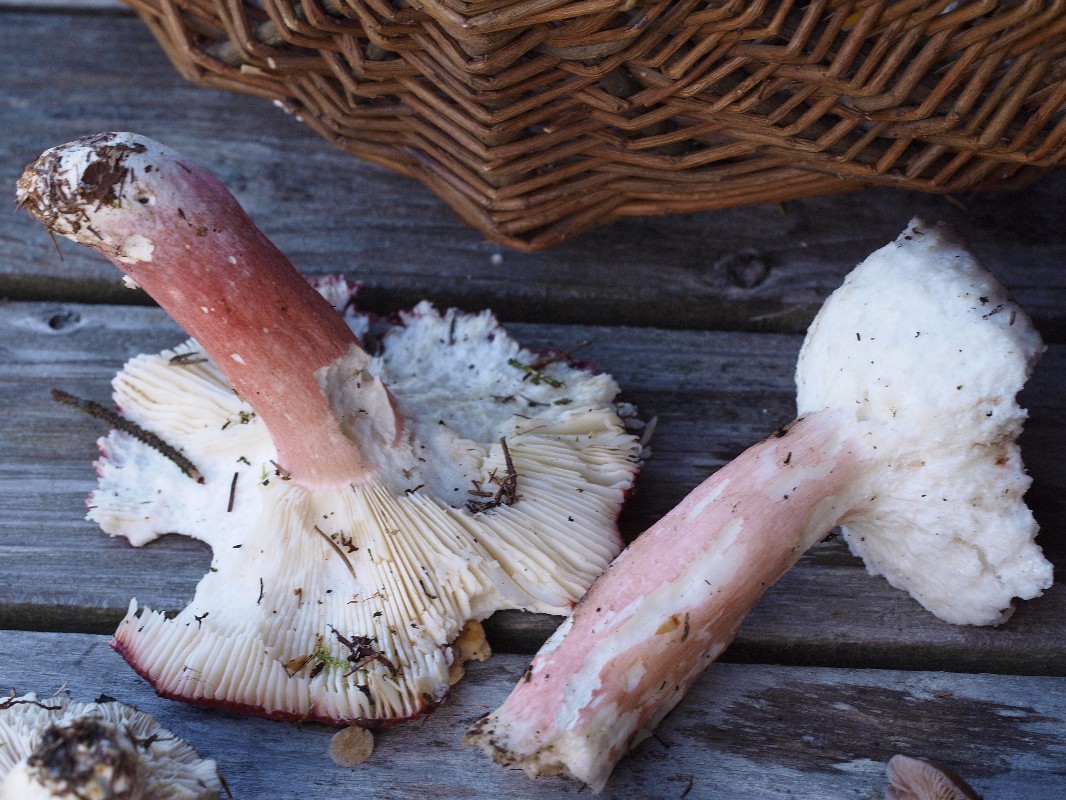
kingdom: Fungi
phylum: Basidiomycota
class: Agaricomycetes
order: Russulales
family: Russulaceae
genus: Russula
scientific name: Russula paludosa
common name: prægtig skørhat
